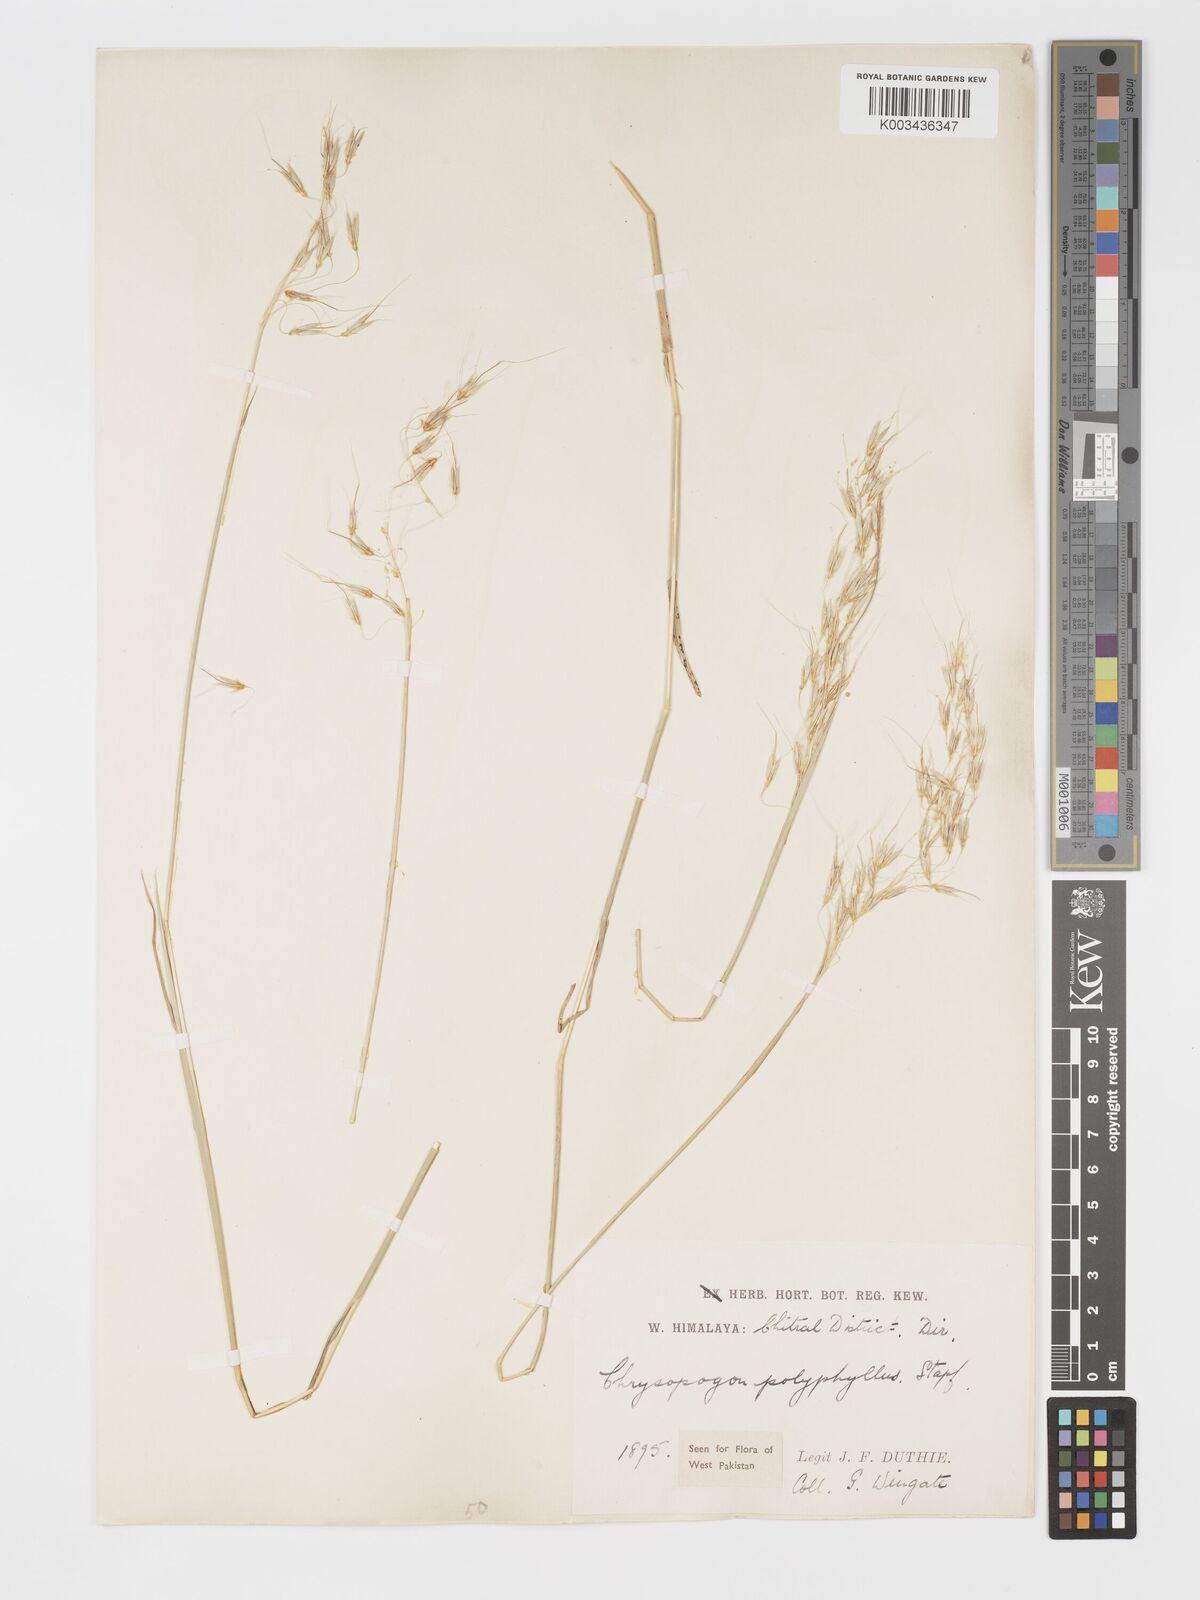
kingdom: Plantae
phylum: Tracheophyta
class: Liliopsida
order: Poales
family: Poaceae
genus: Chrysopogon
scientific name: Chrysopogon serrulatus
